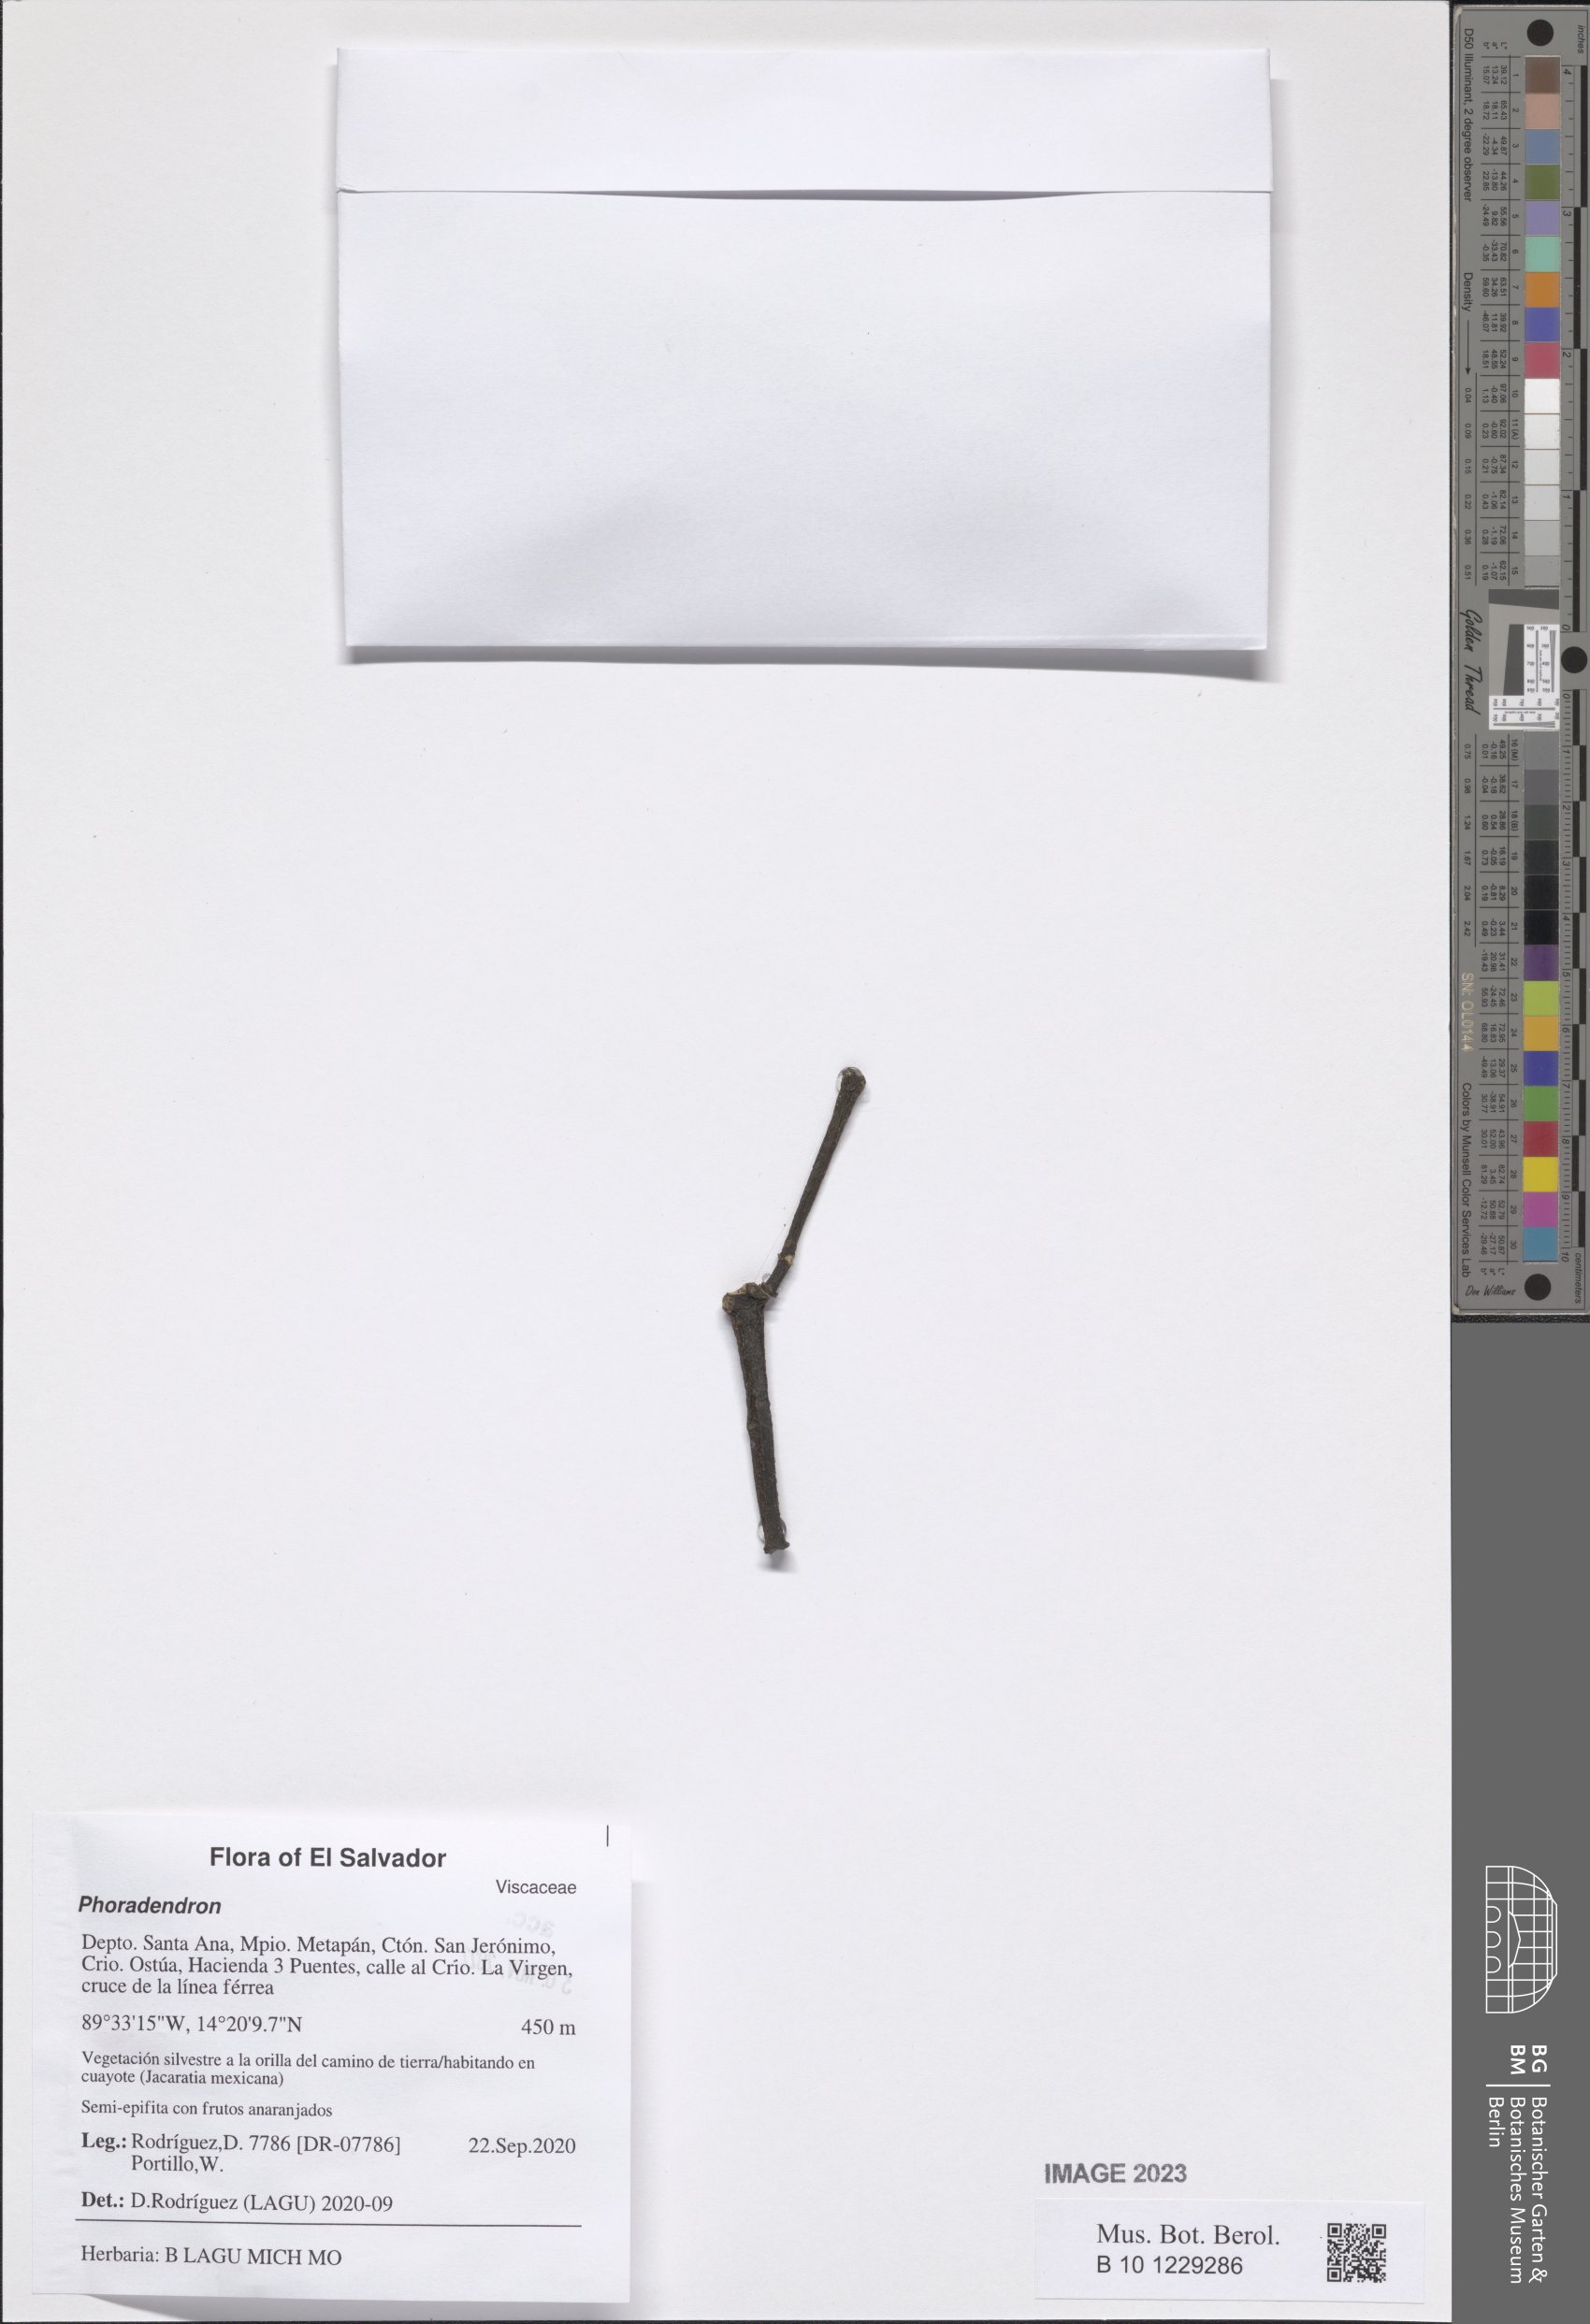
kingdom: Plantae
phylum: Tracheophyta
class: Magnoliopsida
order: Santalales
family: Viscaceae
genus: Phoradendron
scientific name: Phoradendron
